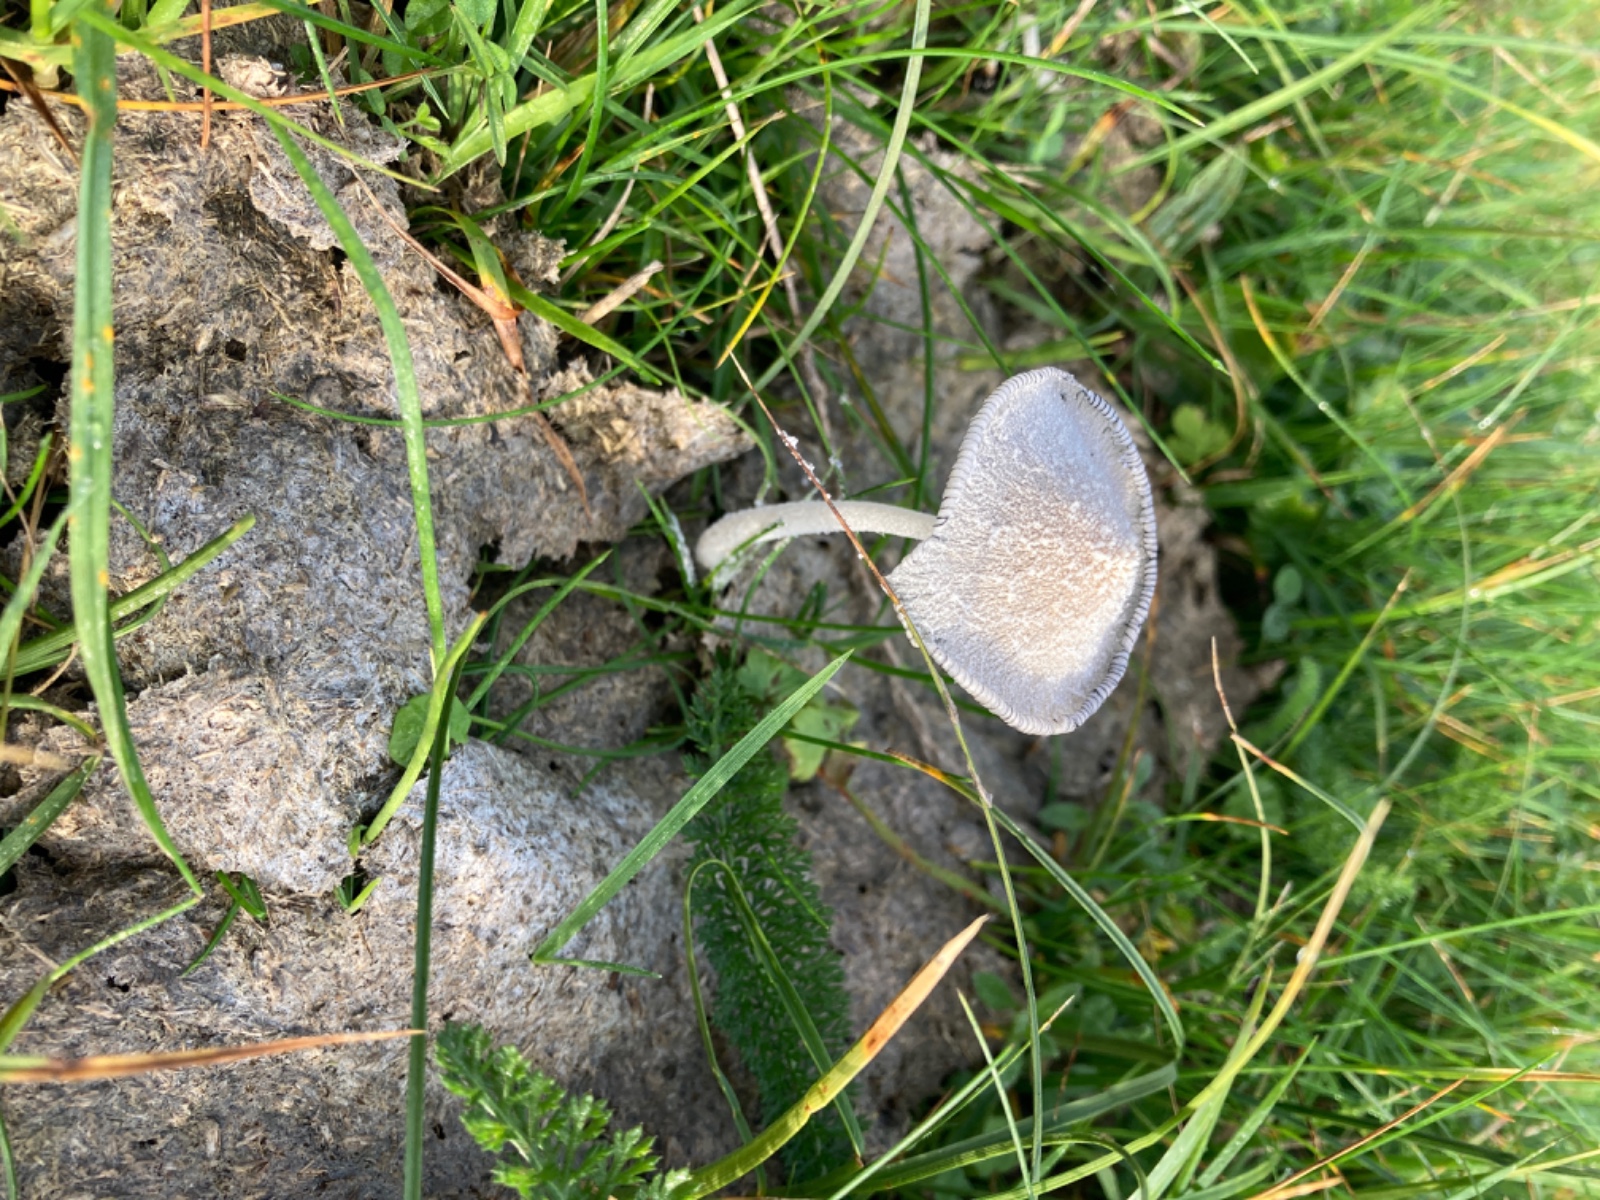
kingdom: Fungi
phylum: Basidiomycota
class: Agaricomycetes
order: Agaricales
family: Psathyrellaceae
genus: Coprinopsis
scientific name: Coprinopsis nivea
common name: snehvid blækhat
